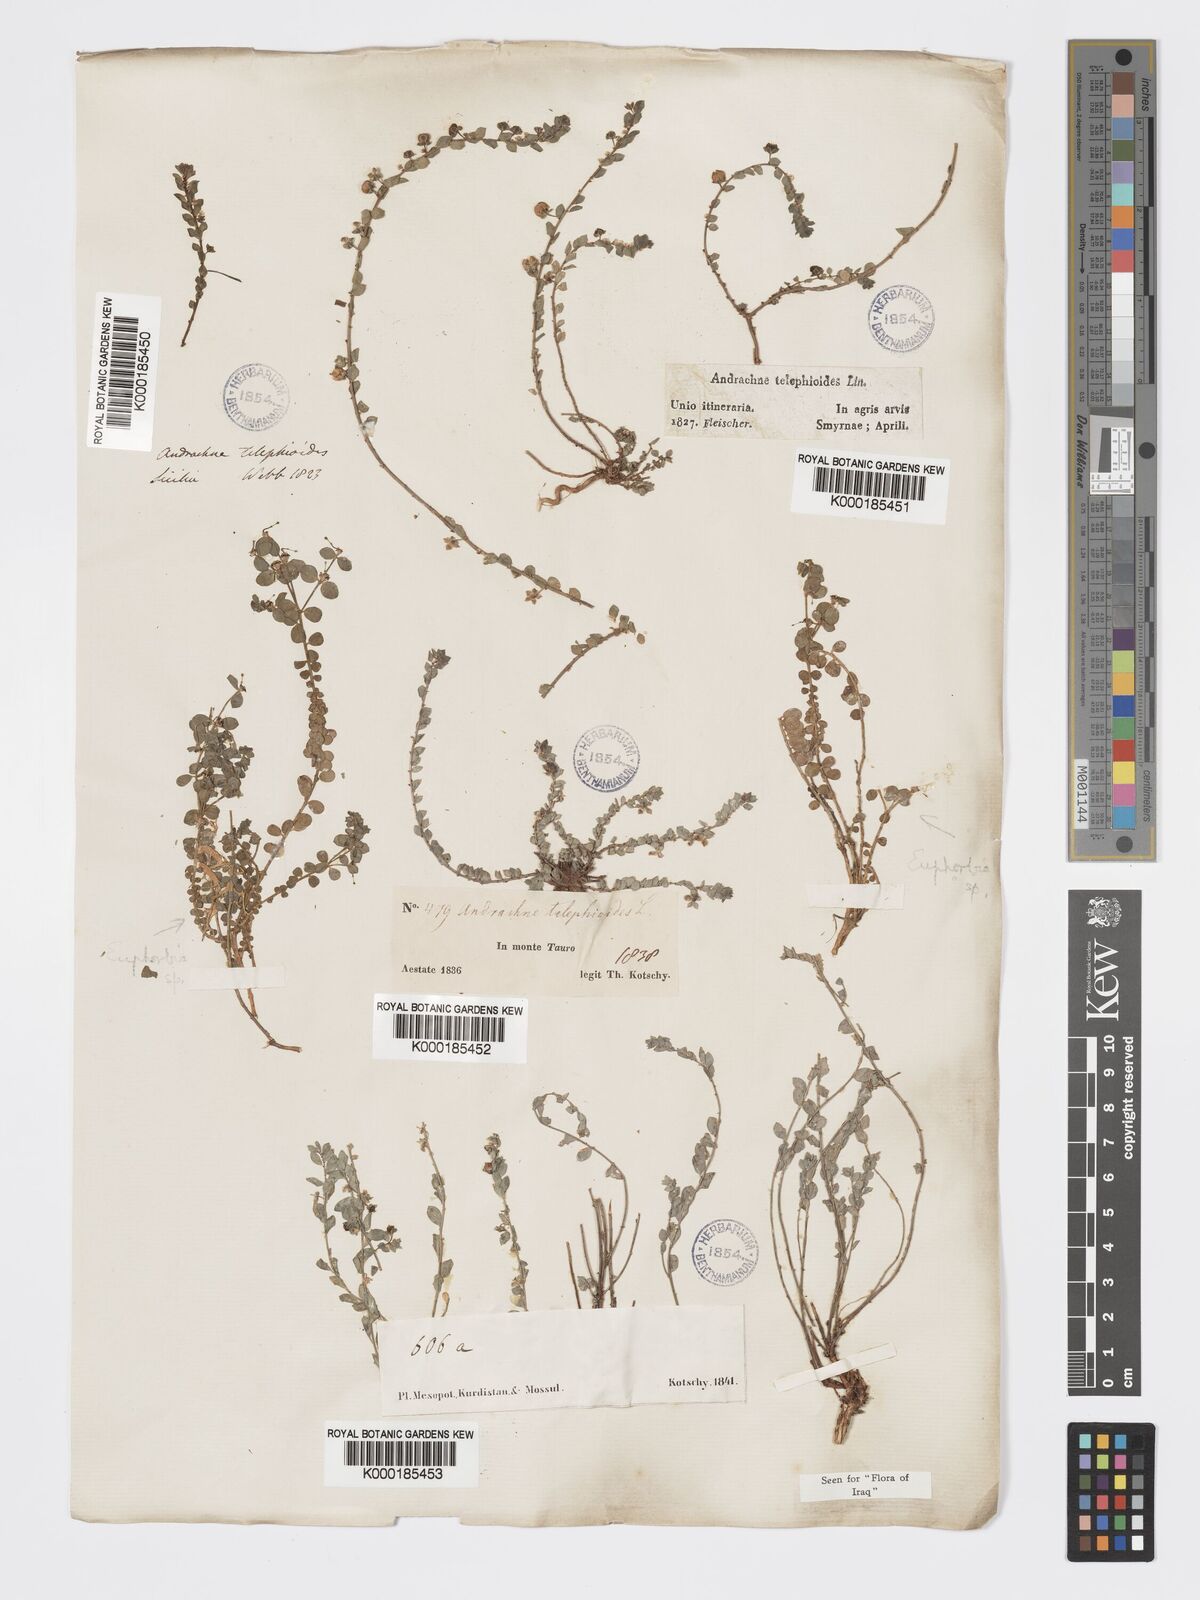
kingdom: Plantae
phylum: Tracheophyta
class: Magnoliopsida
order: Malpighiales
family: Phyllanthaceae
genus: Andrachne
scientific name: Andrachne telephioides
